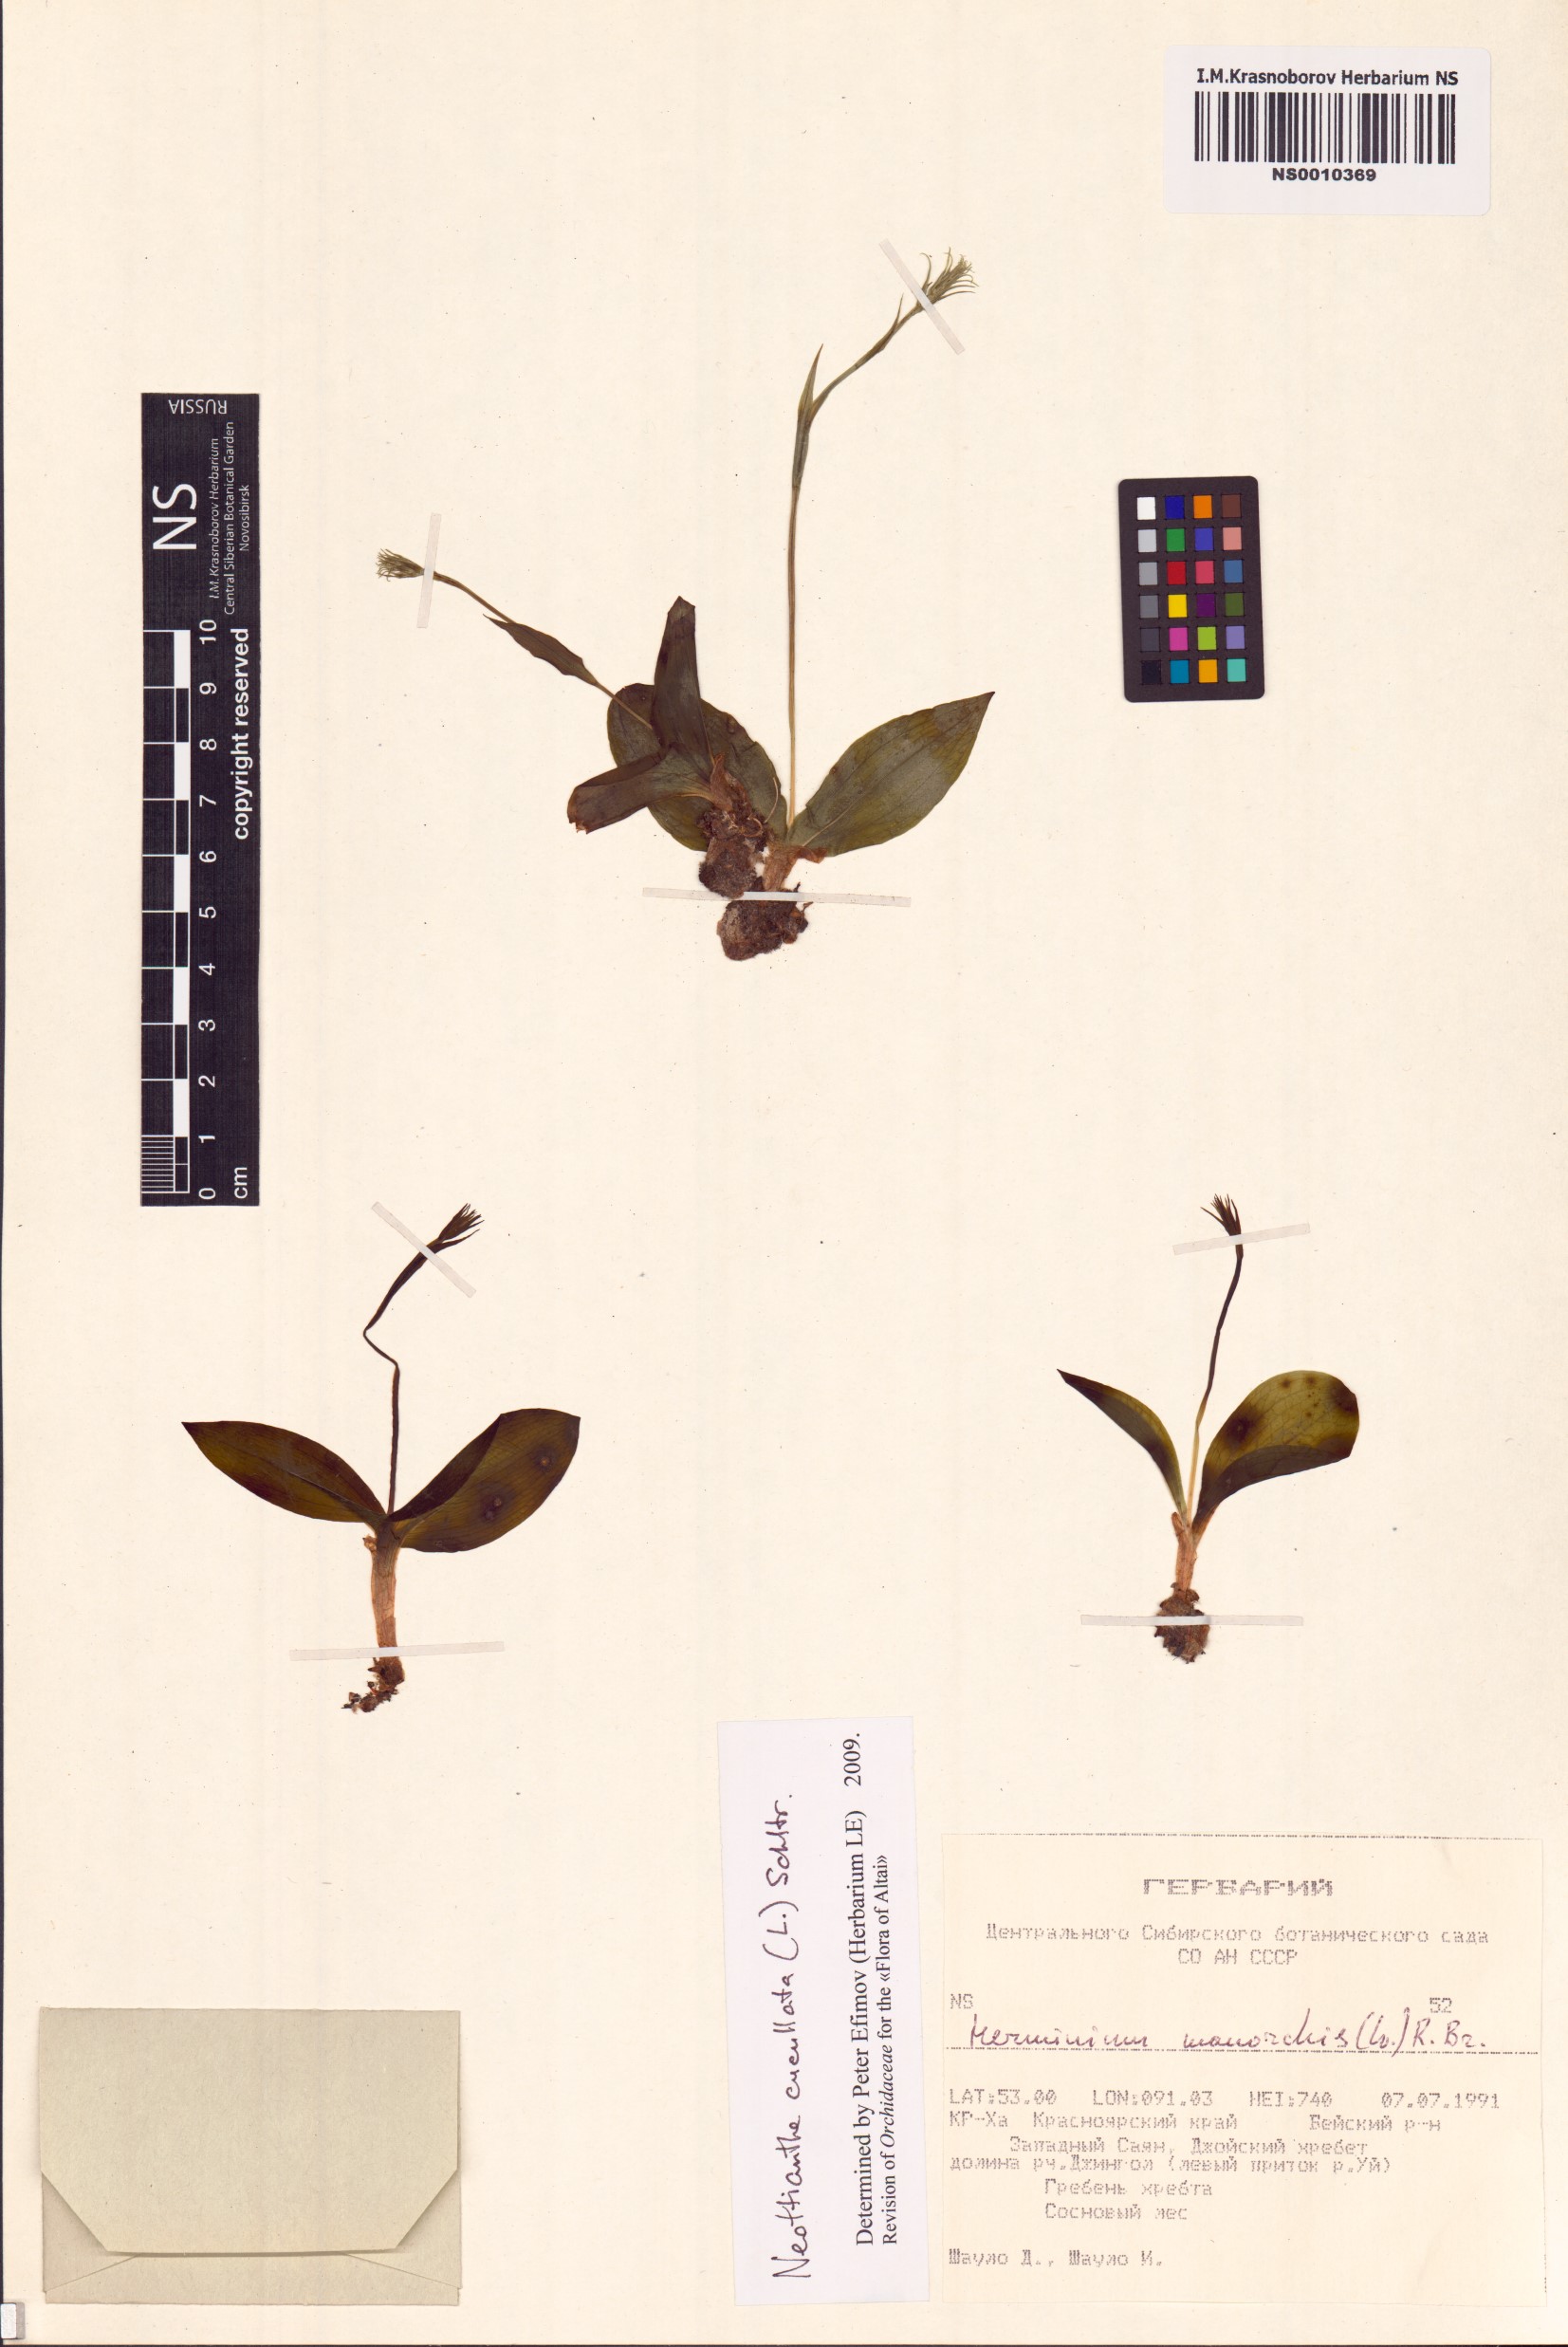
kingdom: Plantae
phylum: Tracheophyta
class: Liliopsida
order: Asparagales
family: Orchidaceae
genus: Hemipilia
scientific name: Hemipilia cucullata
